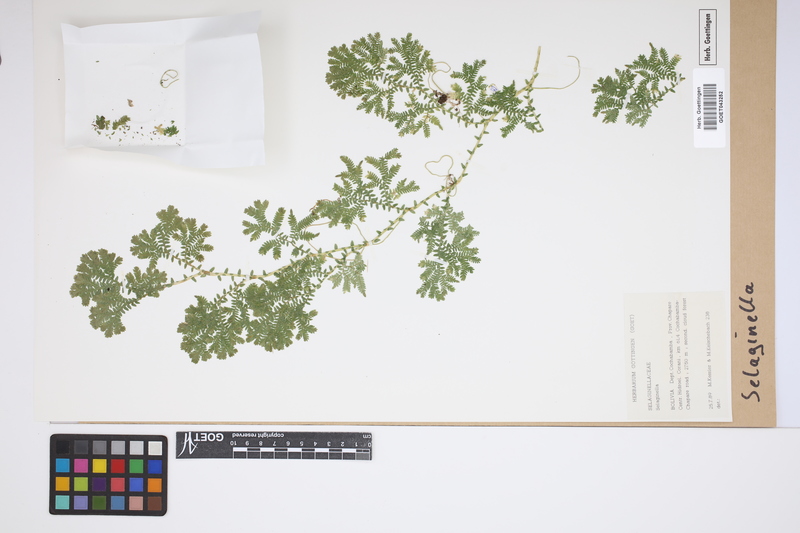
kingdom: Plantae
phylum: Tracheophyta
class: Lycopodiopsida
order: Selaginellales
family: Selaginellaceae
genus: Selaginella
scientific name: Selaginella
